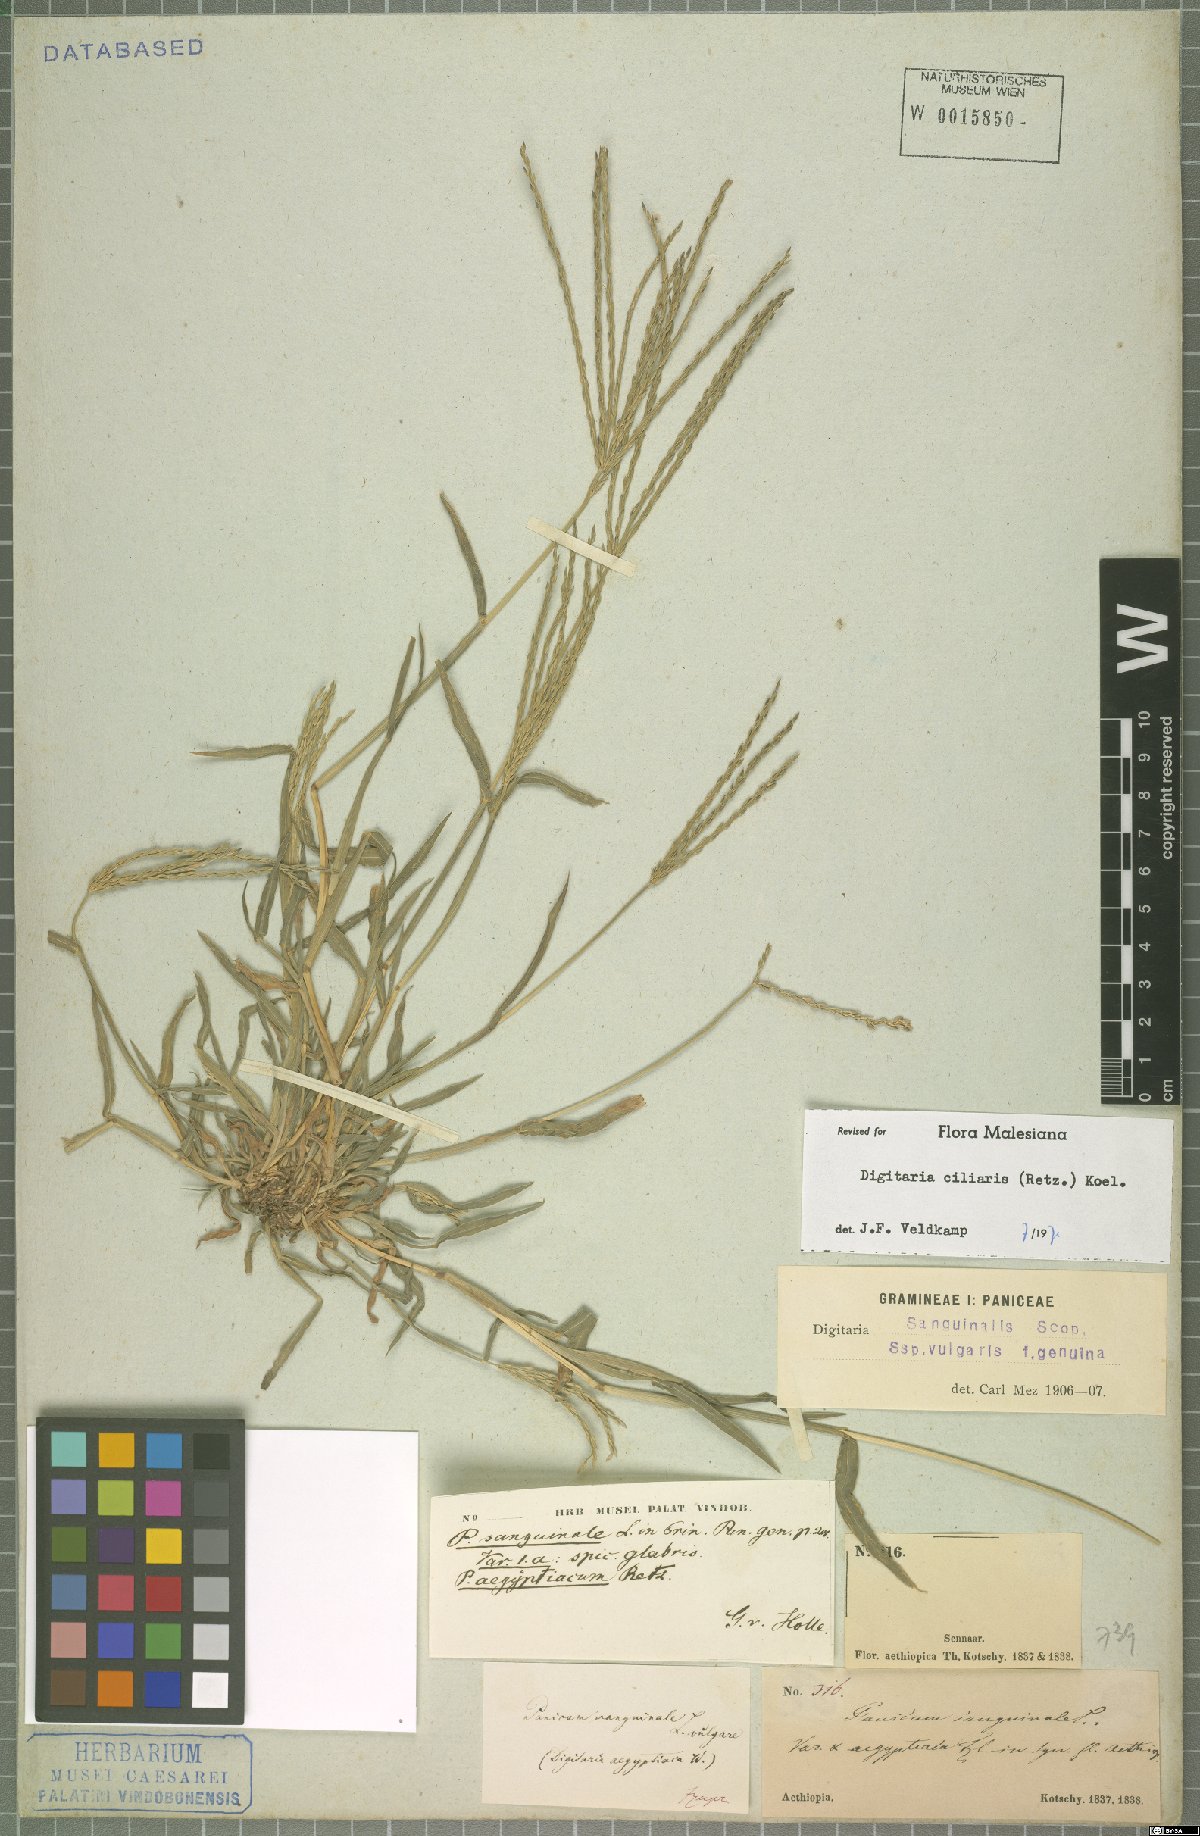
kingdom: Plantae
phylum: Tracheophyta
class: Liliopsida
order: Poales
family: Poaceae
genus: Digitaria
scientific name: Digitaria ciliaris
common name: Tropical finger-grass
